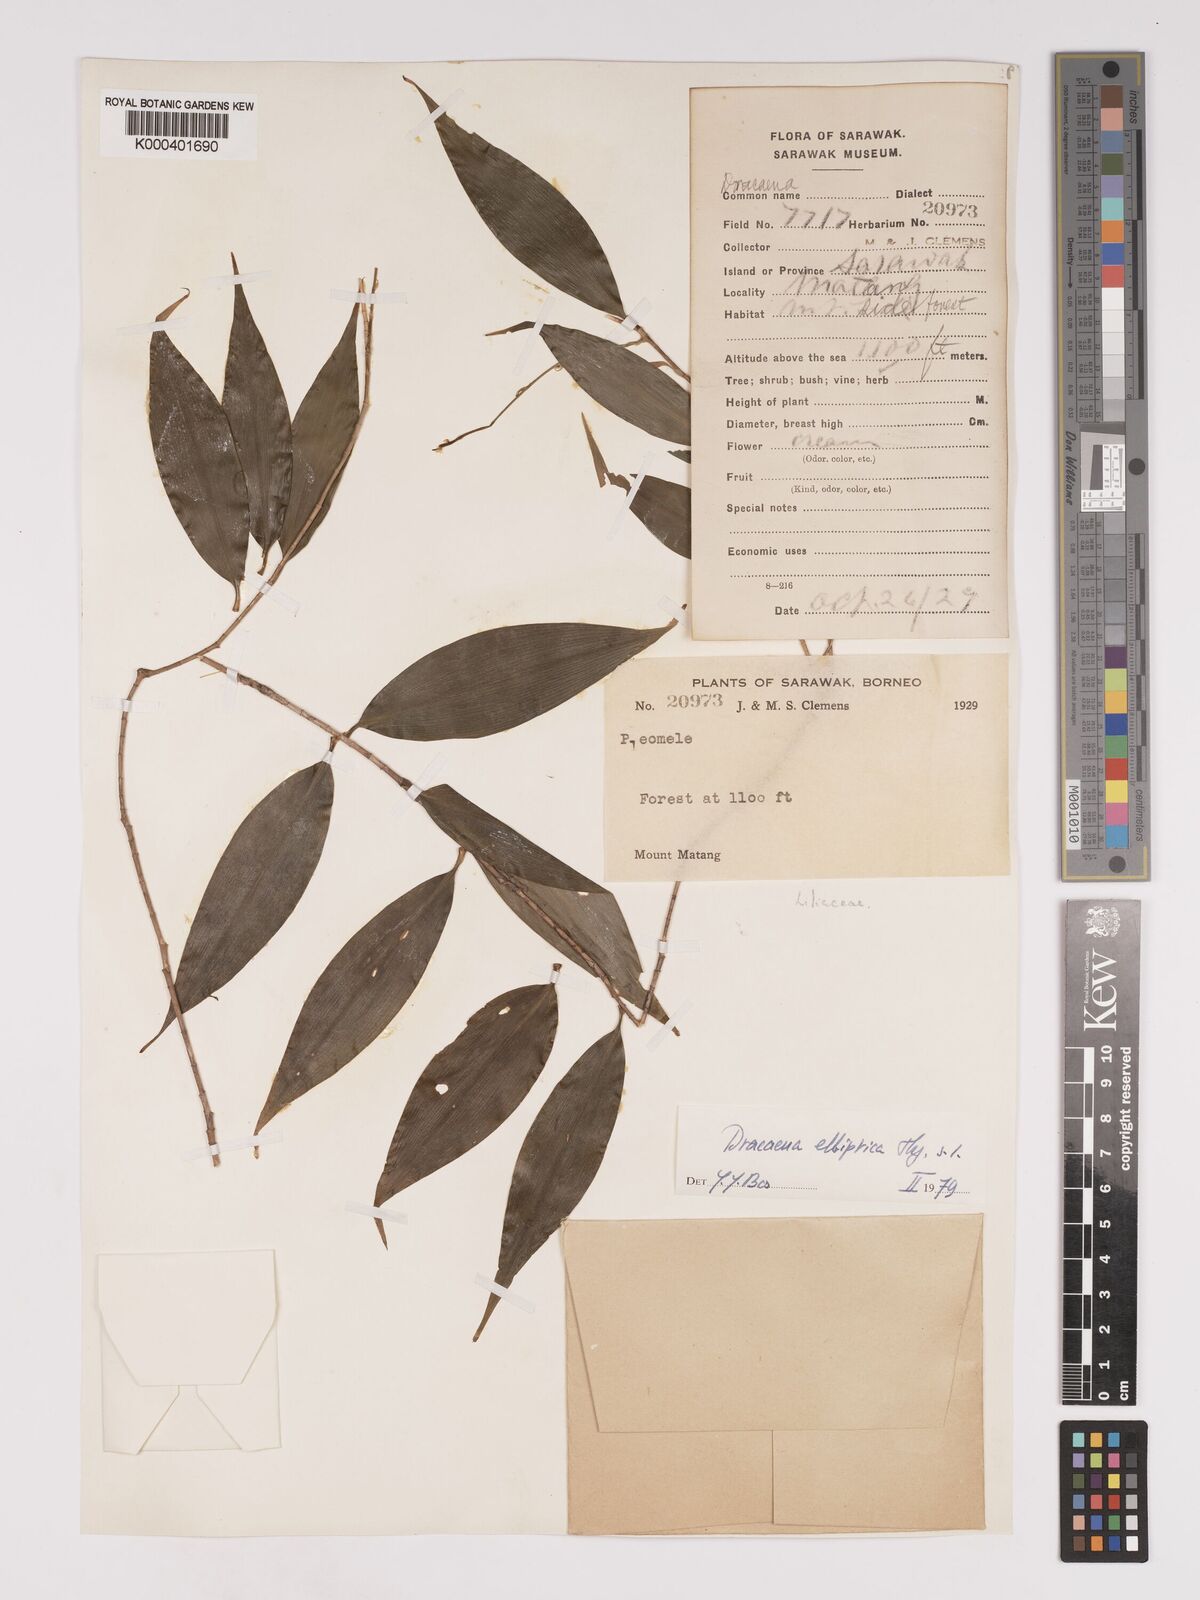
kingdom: Plantae
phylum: Tracheophyta
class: Liliopsida
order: Asparagales
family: Asparagaceae
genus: Dracaena
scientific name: Dracaena elliptica
